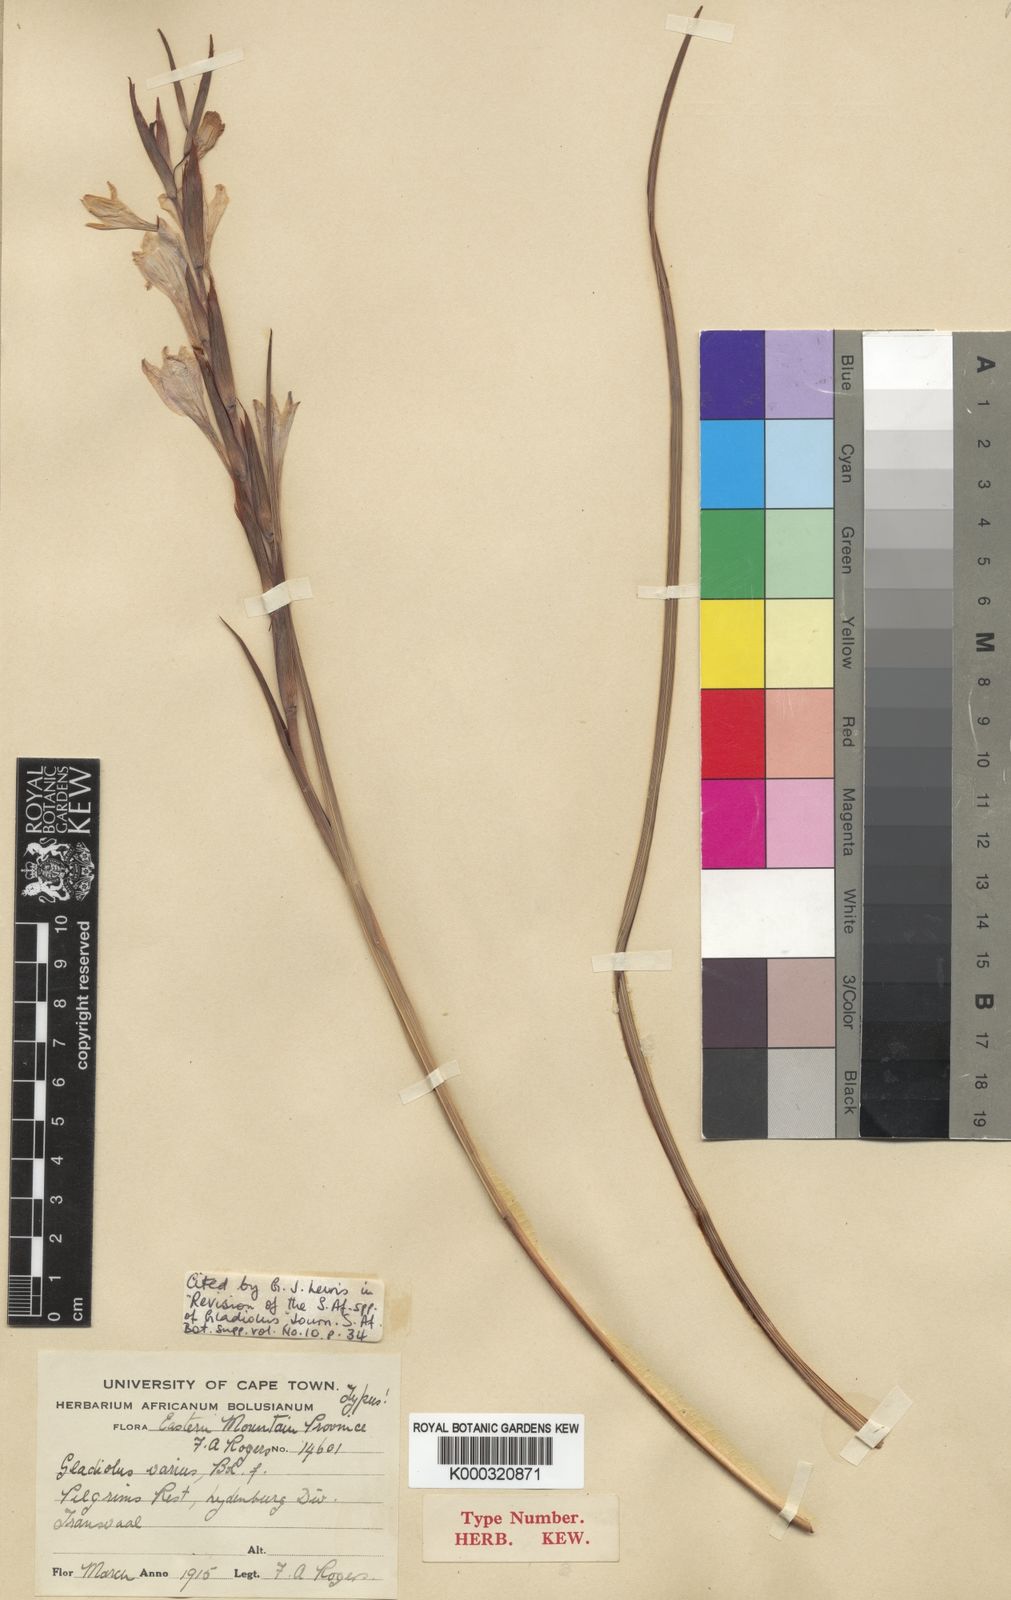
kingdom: Plantae
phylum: Tracheophyta
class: Liliopsida
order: Asparagales
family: Iridaceae
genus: Gladiolus
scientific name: Gladiolus varius
